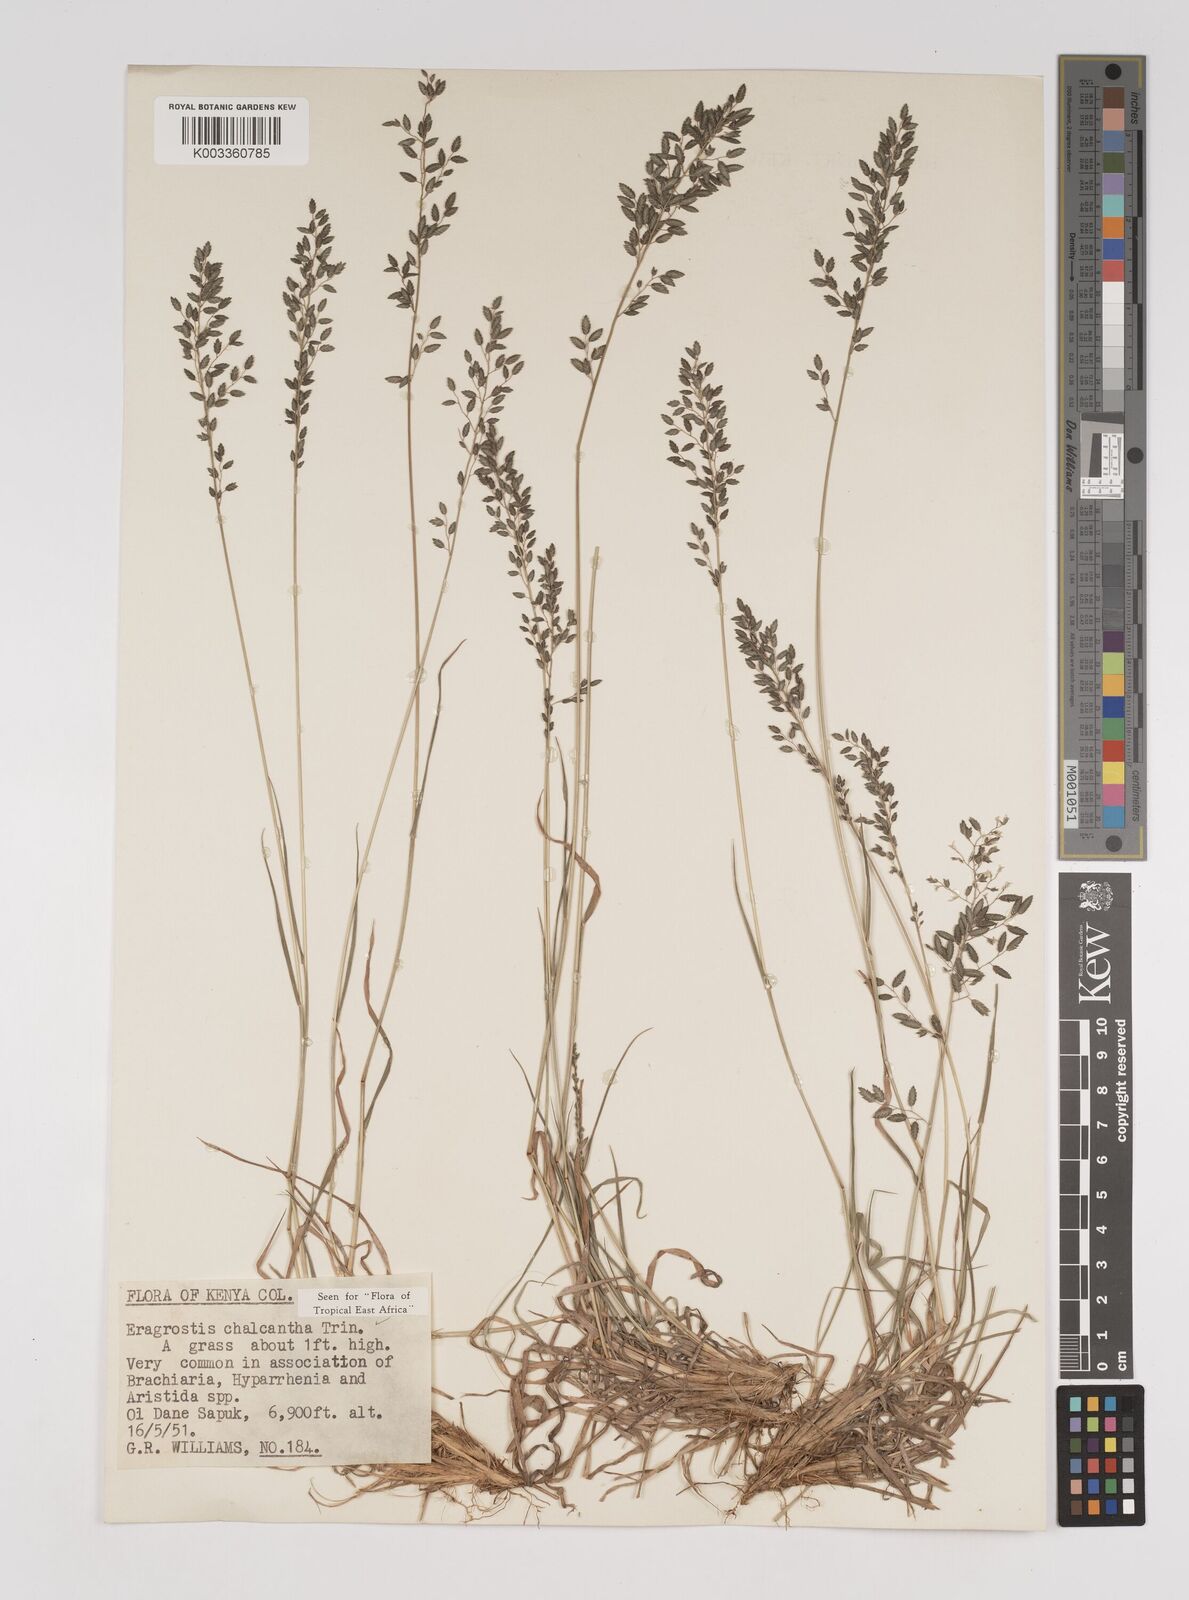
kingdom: Plantae
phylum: Tracheophyta
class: Liliopsida
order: Poales
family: Poaceae
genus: Eragrostis
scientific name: Eragrostis racemosa
